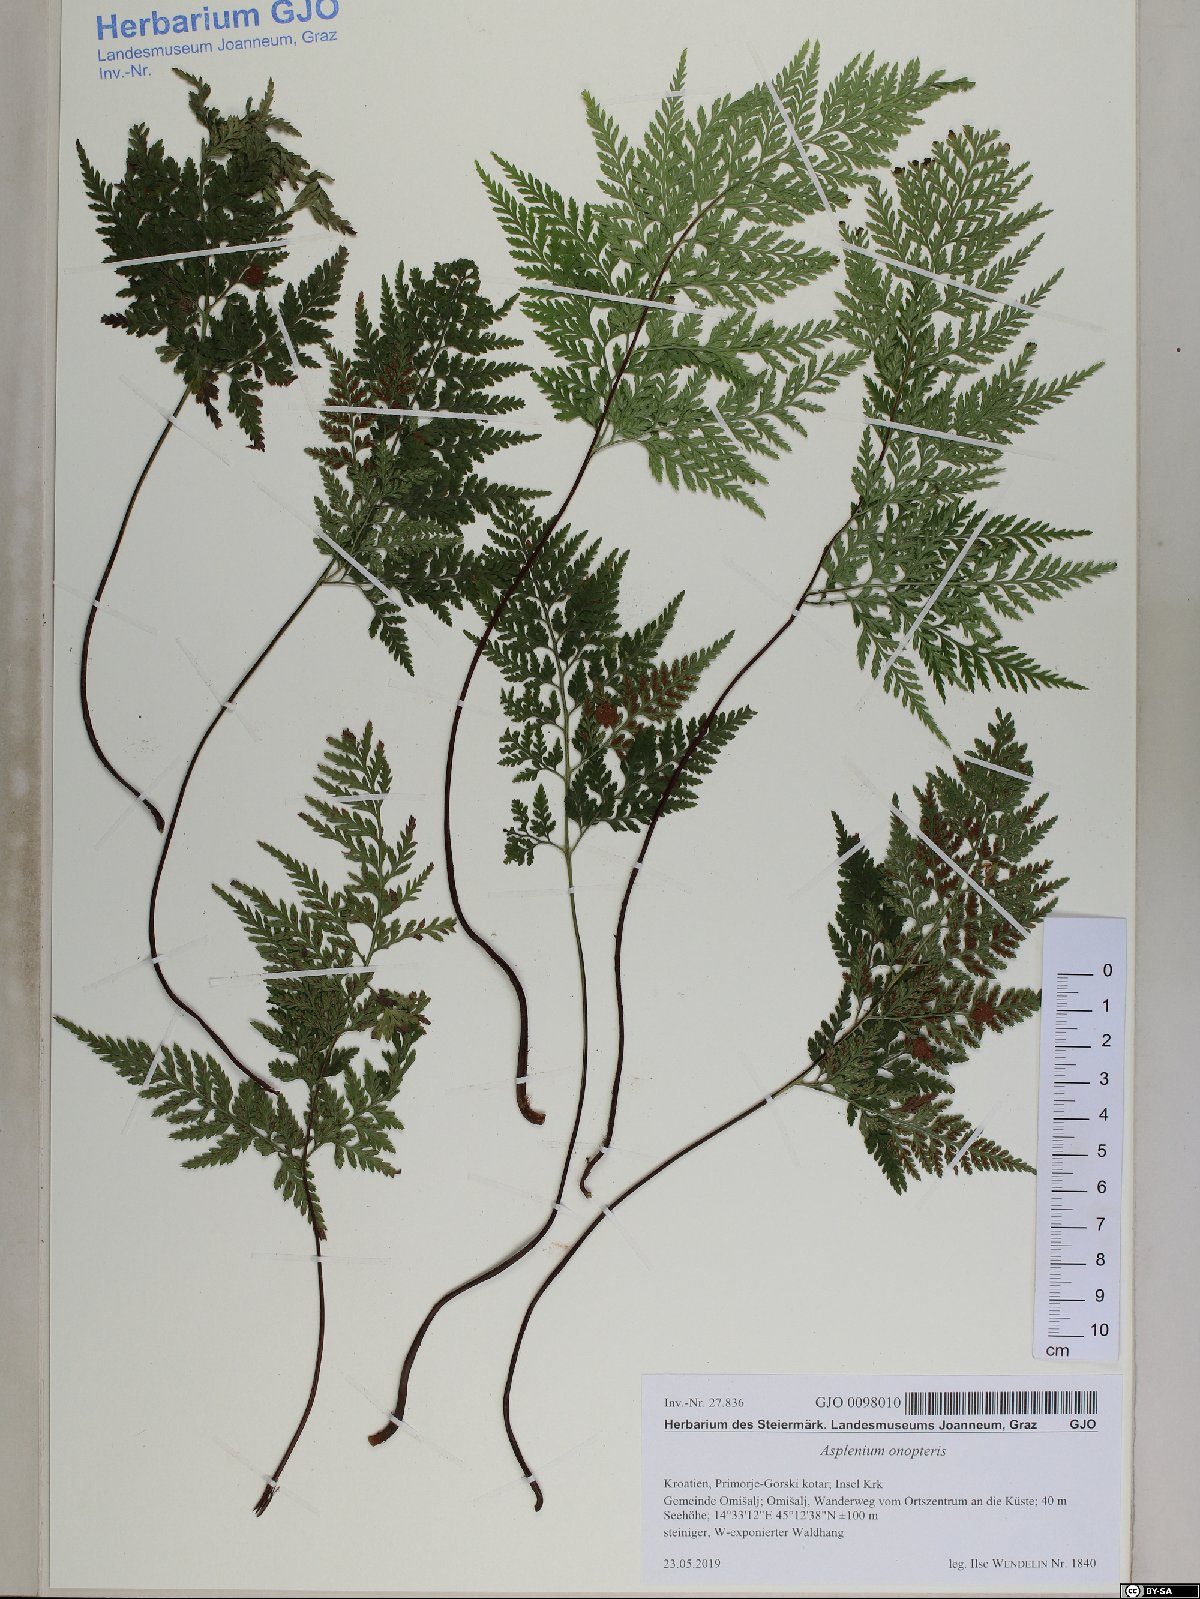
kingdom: Plantae
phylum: Tracheophyta
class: Polypodiopsida
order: Polypodiales
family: Aspleniaceae
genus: Asplenium
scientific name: Asplenium onopteris
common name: Irish spleenwort
